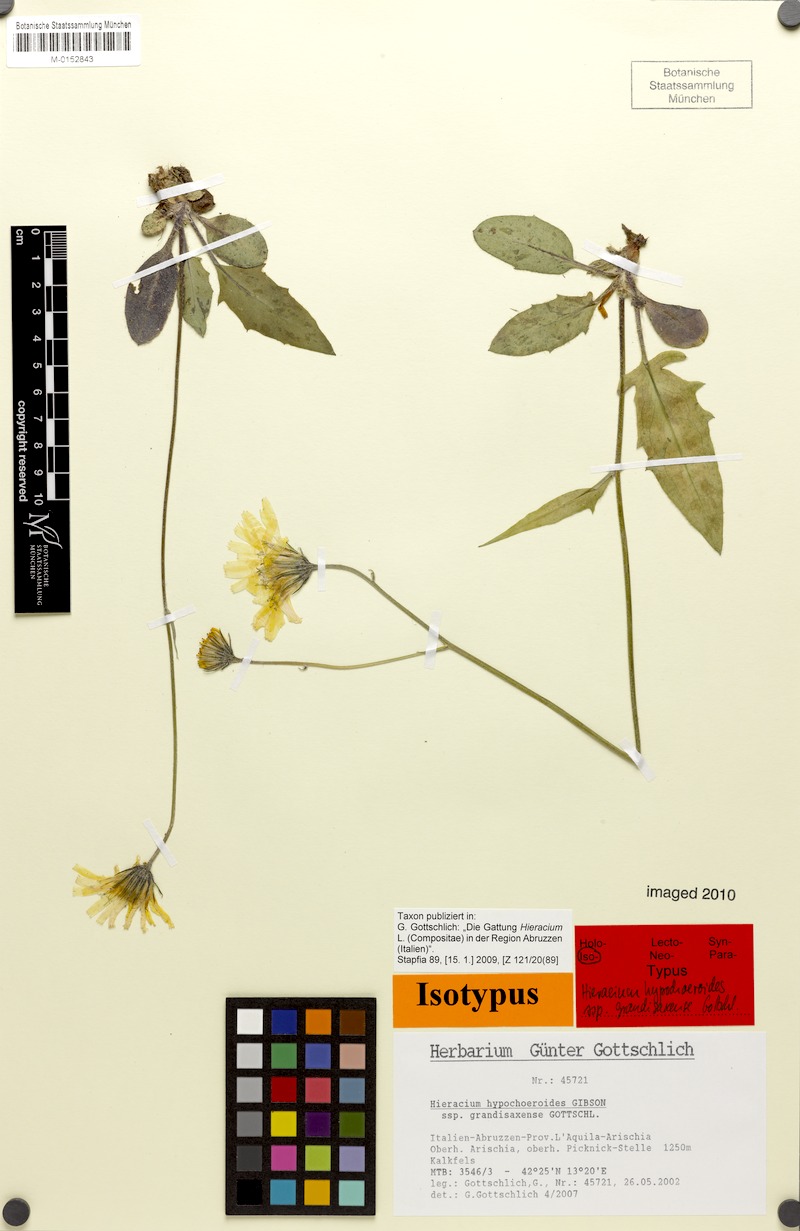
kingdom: Plantae
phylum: Tracheophyta
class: Magnoliopsida
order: Asterales
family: Asteraceae
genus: Hieracium
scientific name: Hieracium hypochoeroides
